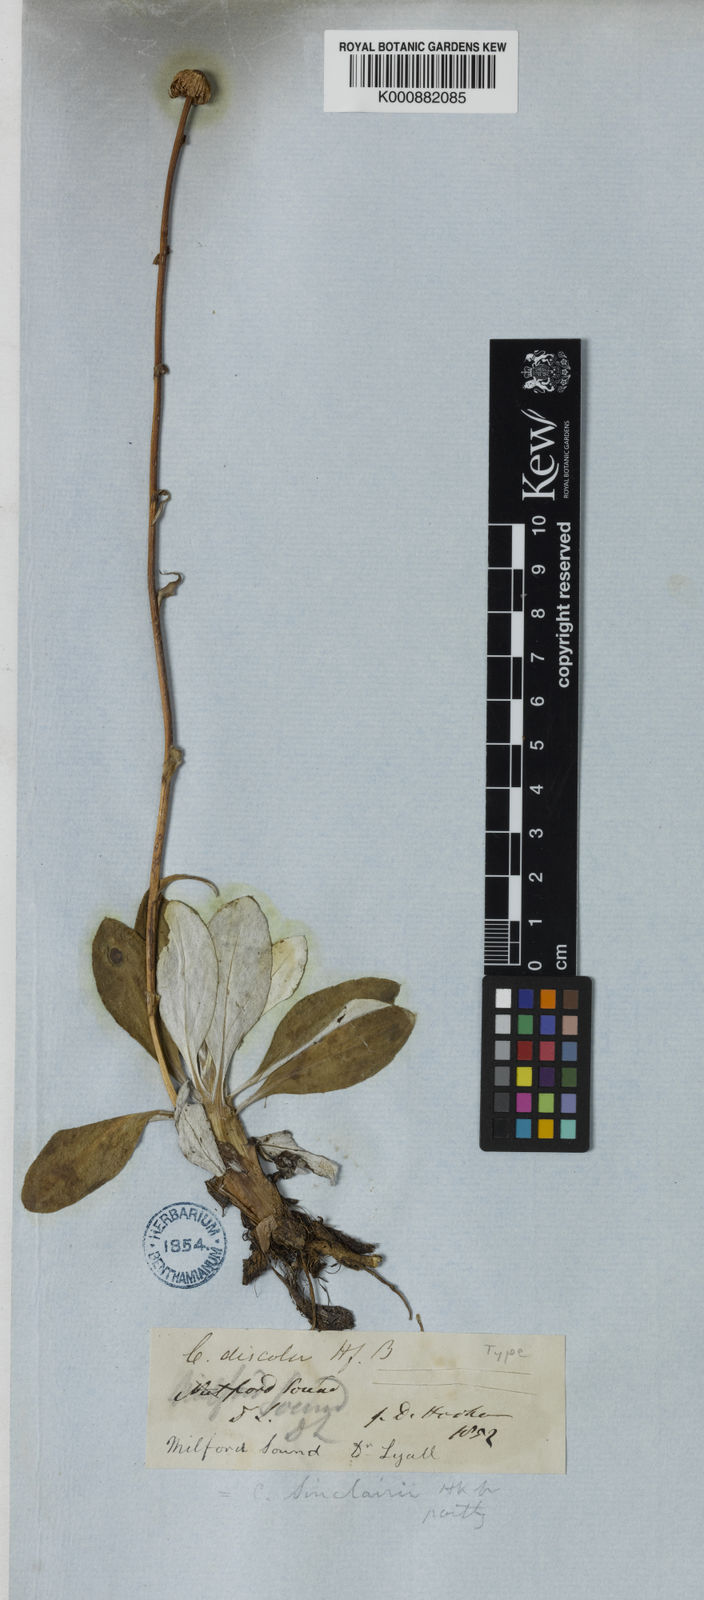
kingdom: Plantae
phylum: Tracheophyta
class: Magnoliopsida
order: Asterales
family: Asteraceae
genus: Celmisia
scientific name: Celmisia discolor
